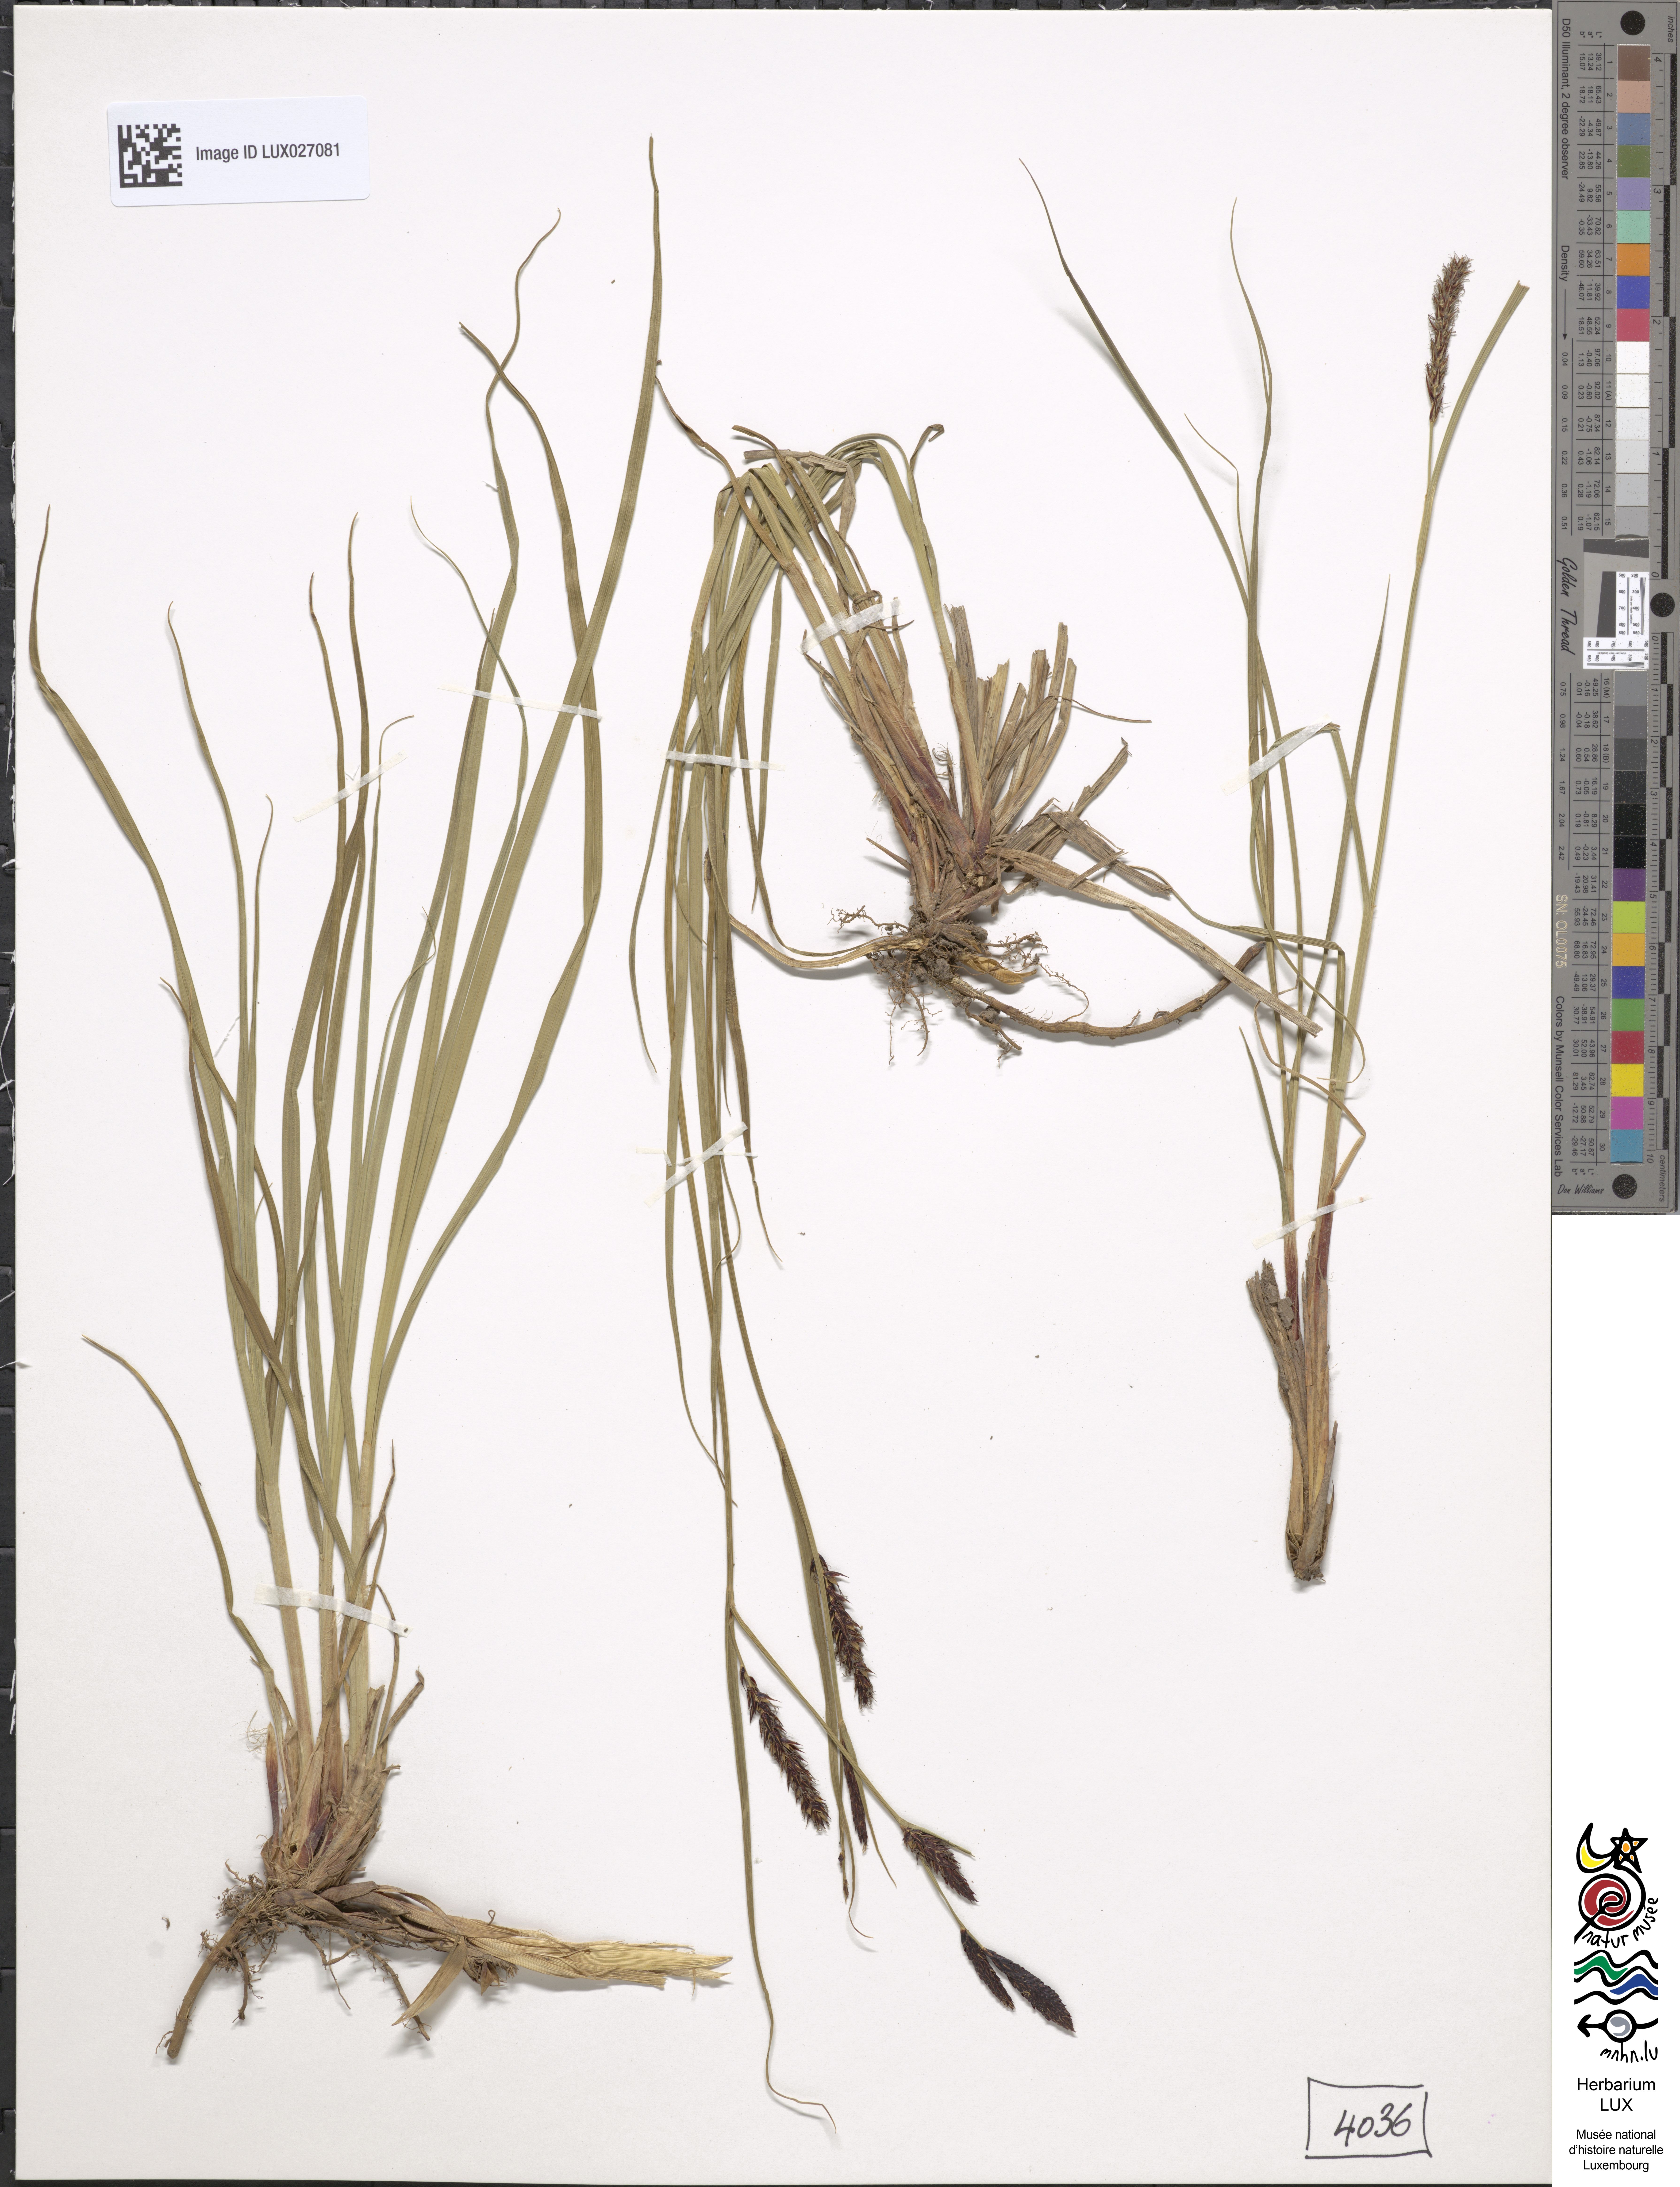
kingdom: Plantae
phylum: Tracheophyta
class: Liliopsida
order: Poales
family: Cyperaceae
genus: Carex
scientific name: Carex melanostachya
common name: Black-spiked sedge
